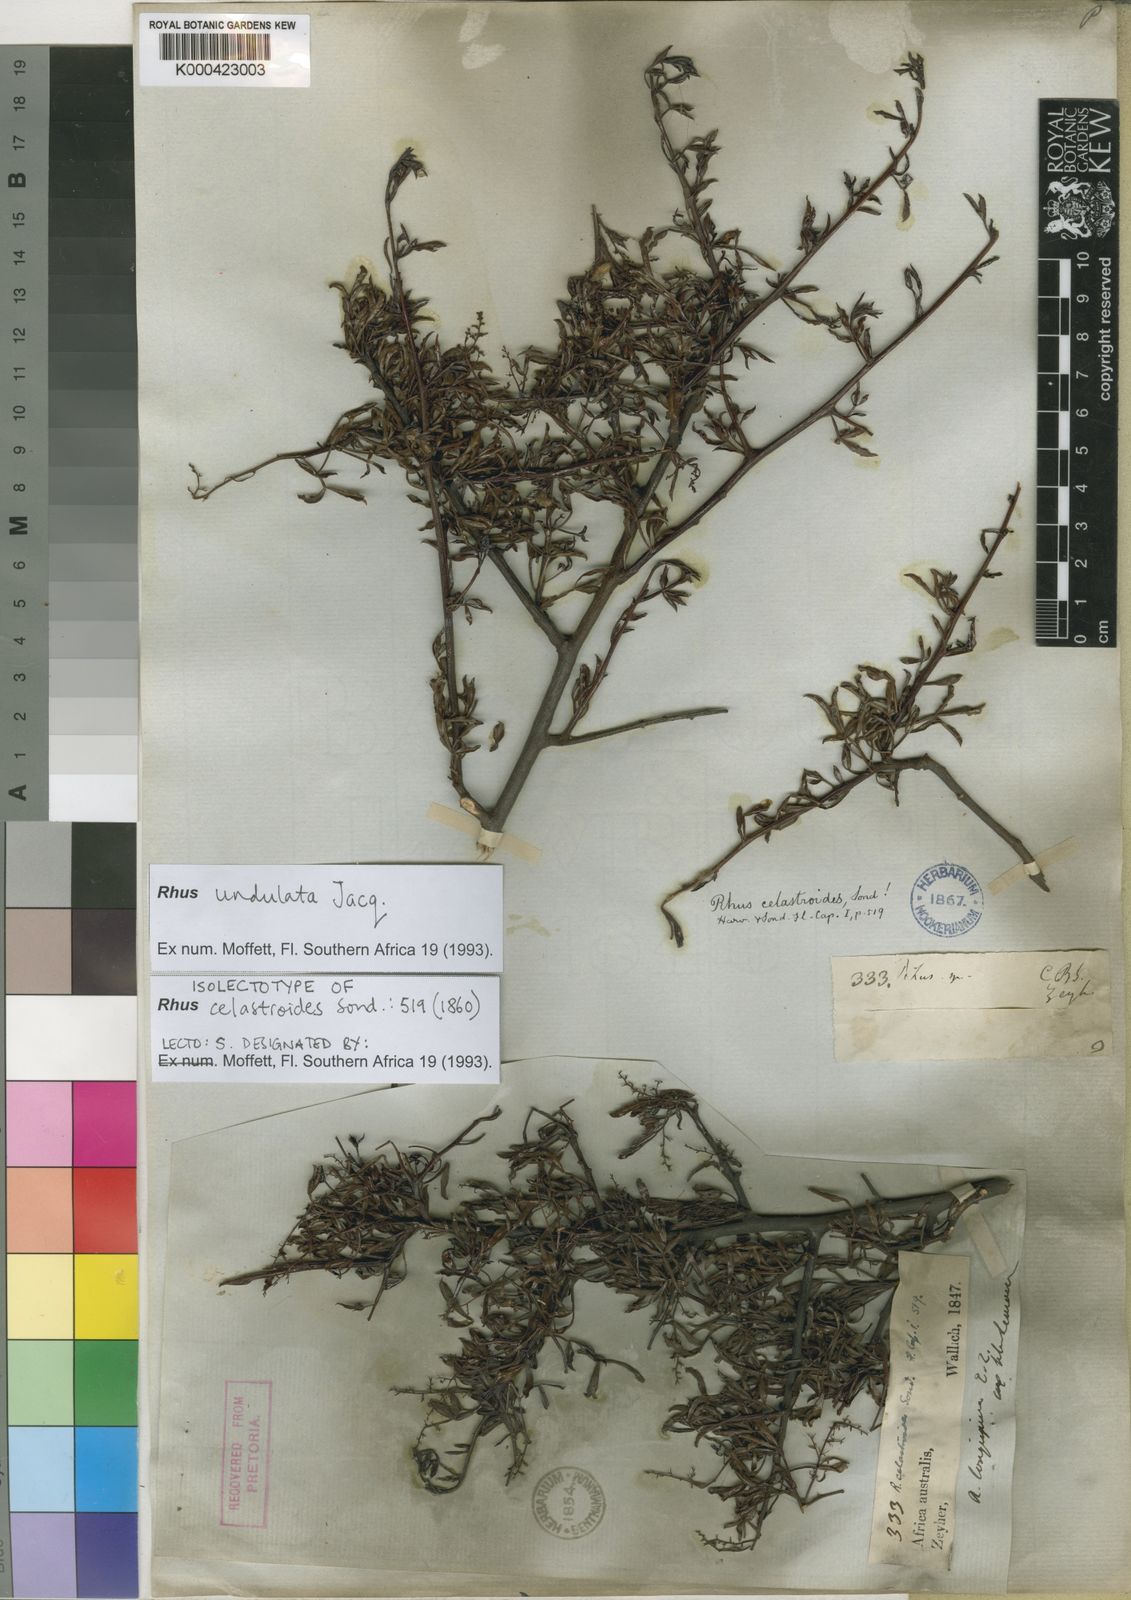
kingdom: Plantae
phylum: Tracheophyta
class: Magnoliopsida
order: Sapindales
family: Anacardiaceae
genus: Searsia
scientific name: Searsia undulata
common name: Namaqua kunibush
